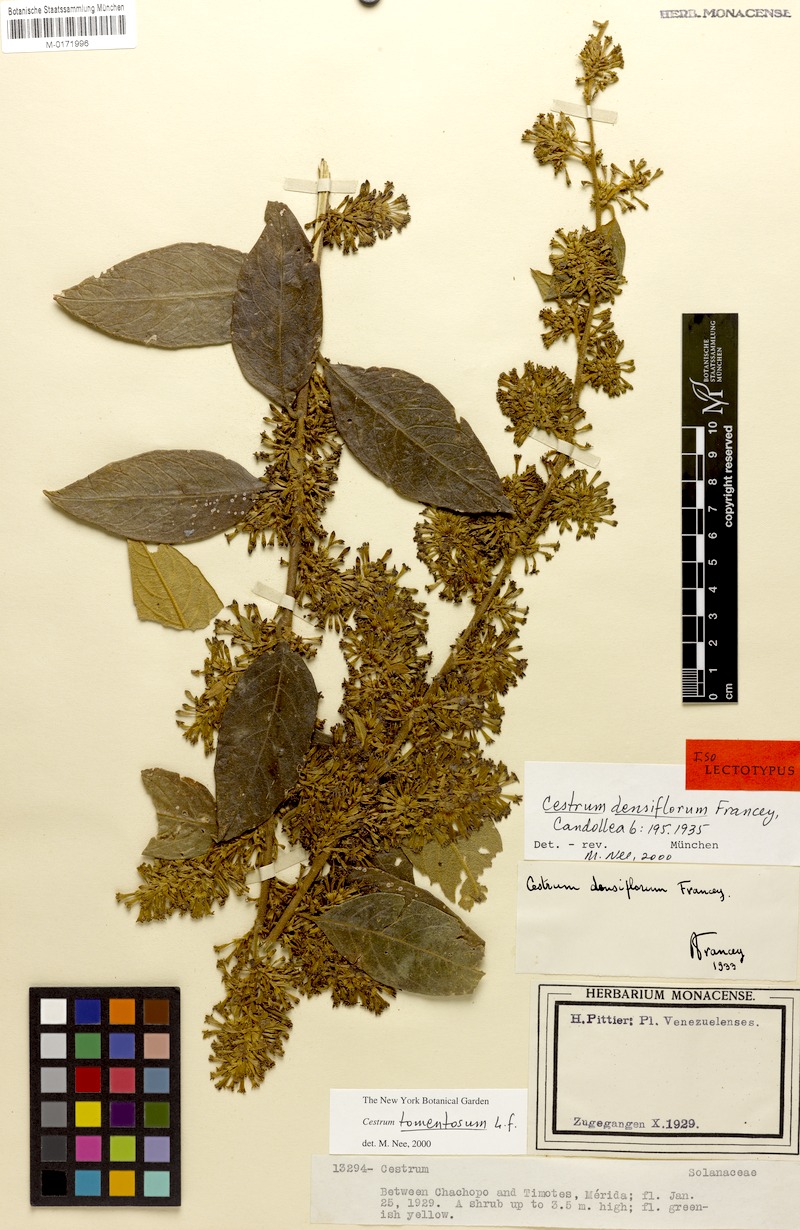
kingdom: Plantae
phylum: Tracheophyta
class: Magnoliopsida
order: Solanales
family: Solanaceae
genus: Cestrum
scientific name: Cestrum tomentosum
